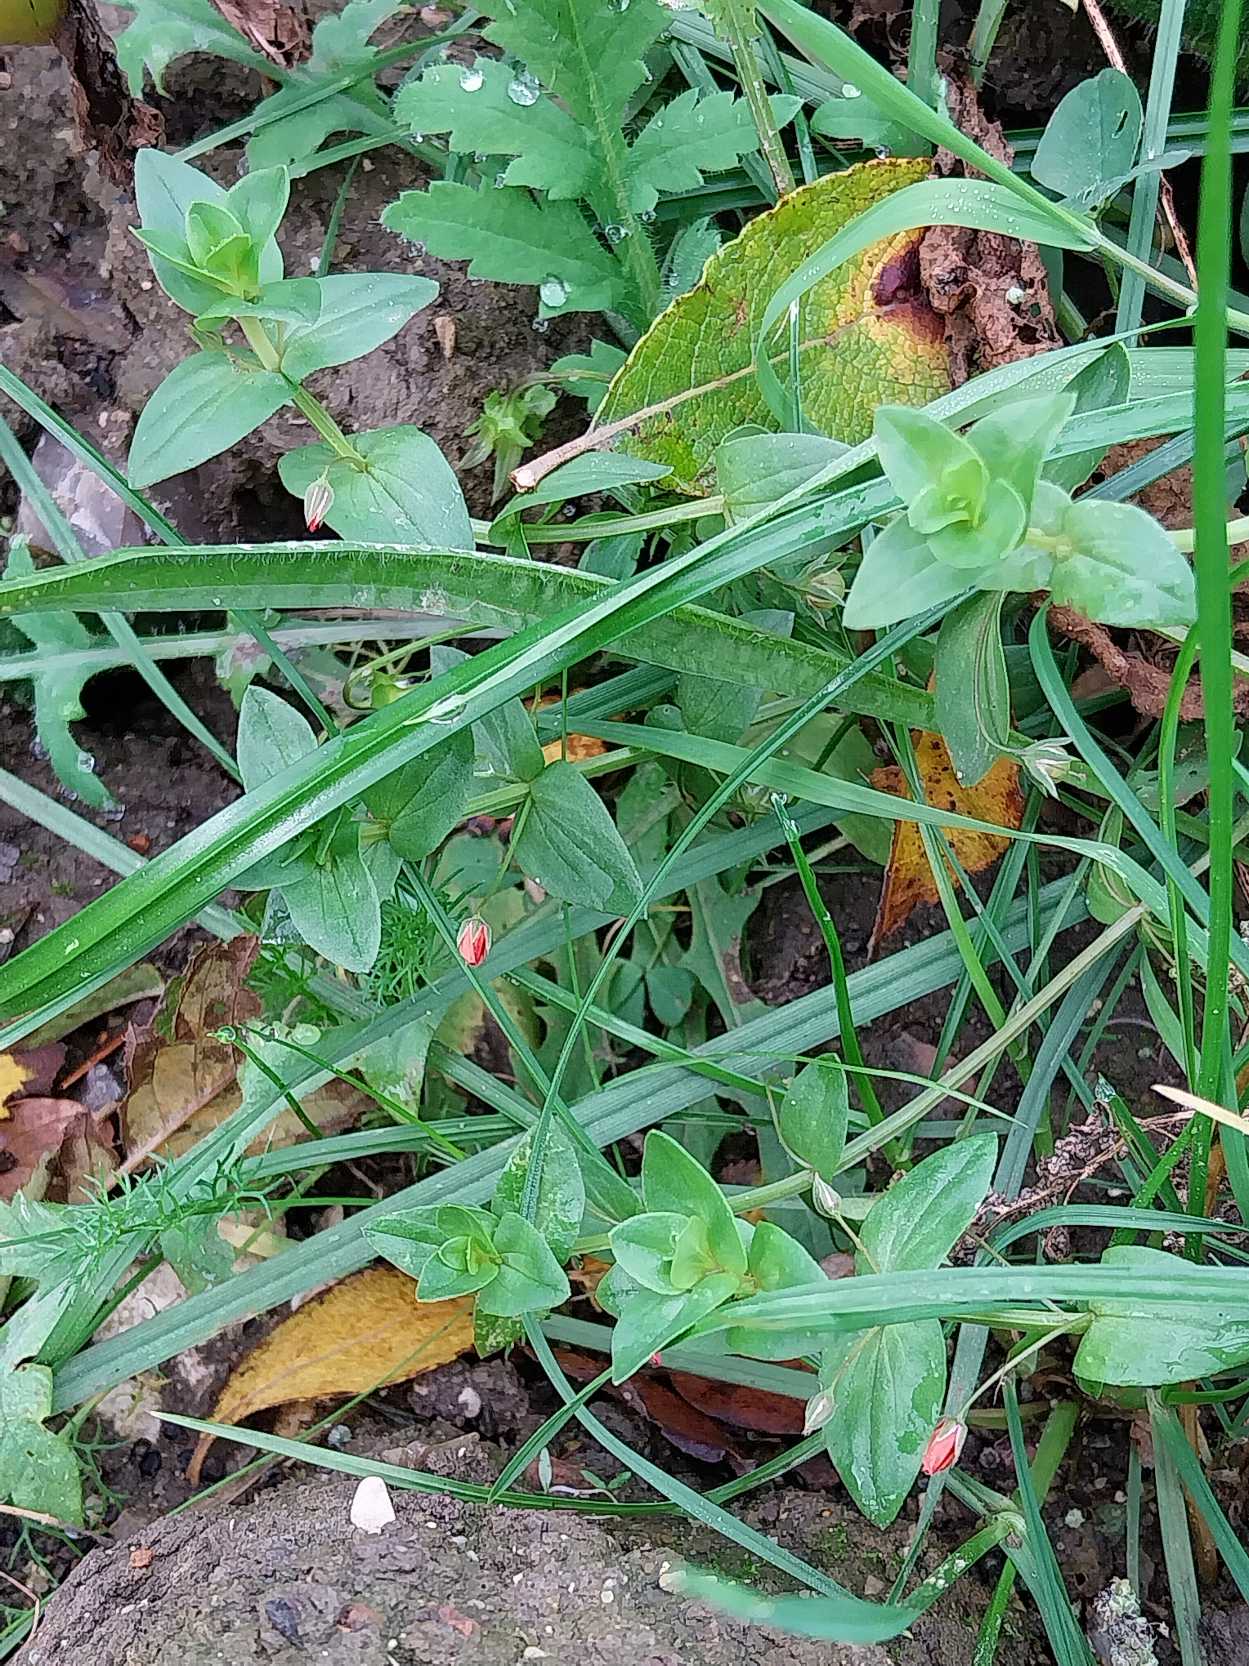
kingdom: Plantae
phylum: Tracheophyta
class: Magnoliopsida
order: Ericales
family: Primulaceae
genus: Lysimachia
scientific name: Lysimachia arvensis
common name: Rød arve
